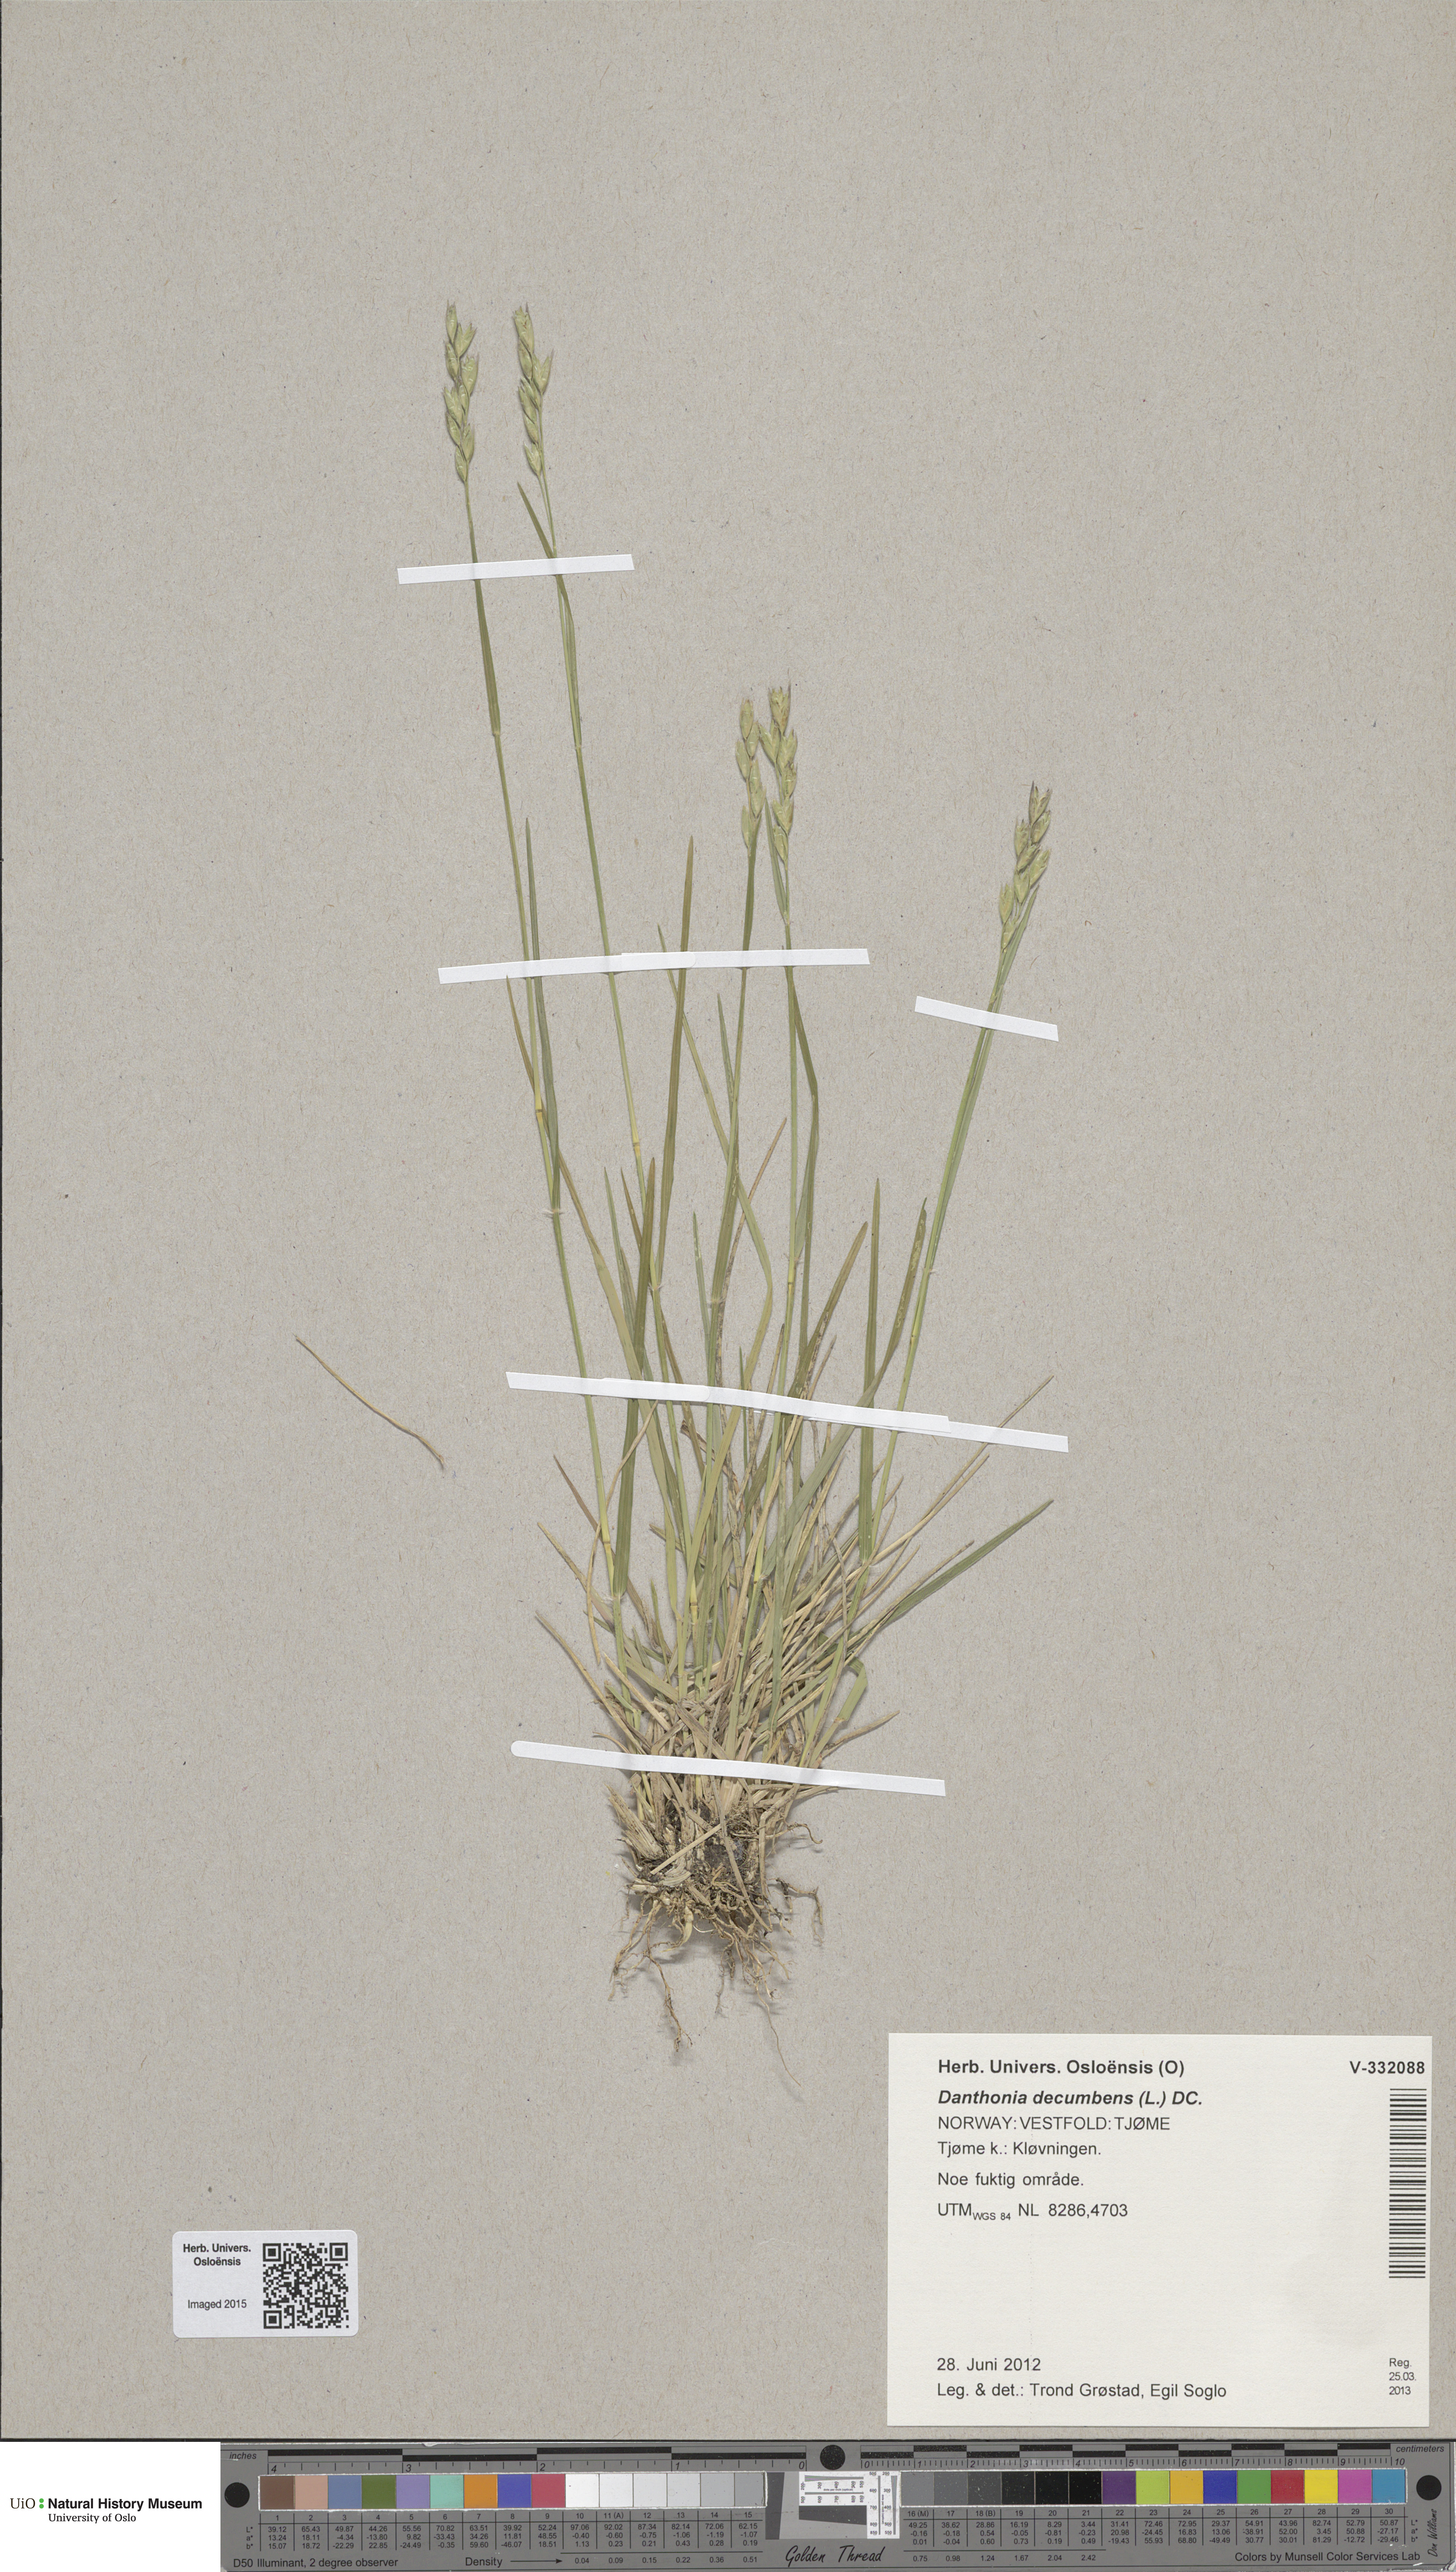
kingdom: Plantae
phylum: Tracheophyta
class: Liliopsida
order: Poales
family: Poaceae
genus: Danthonia
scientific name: Danthonia decumbens
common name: Common heathgrass
